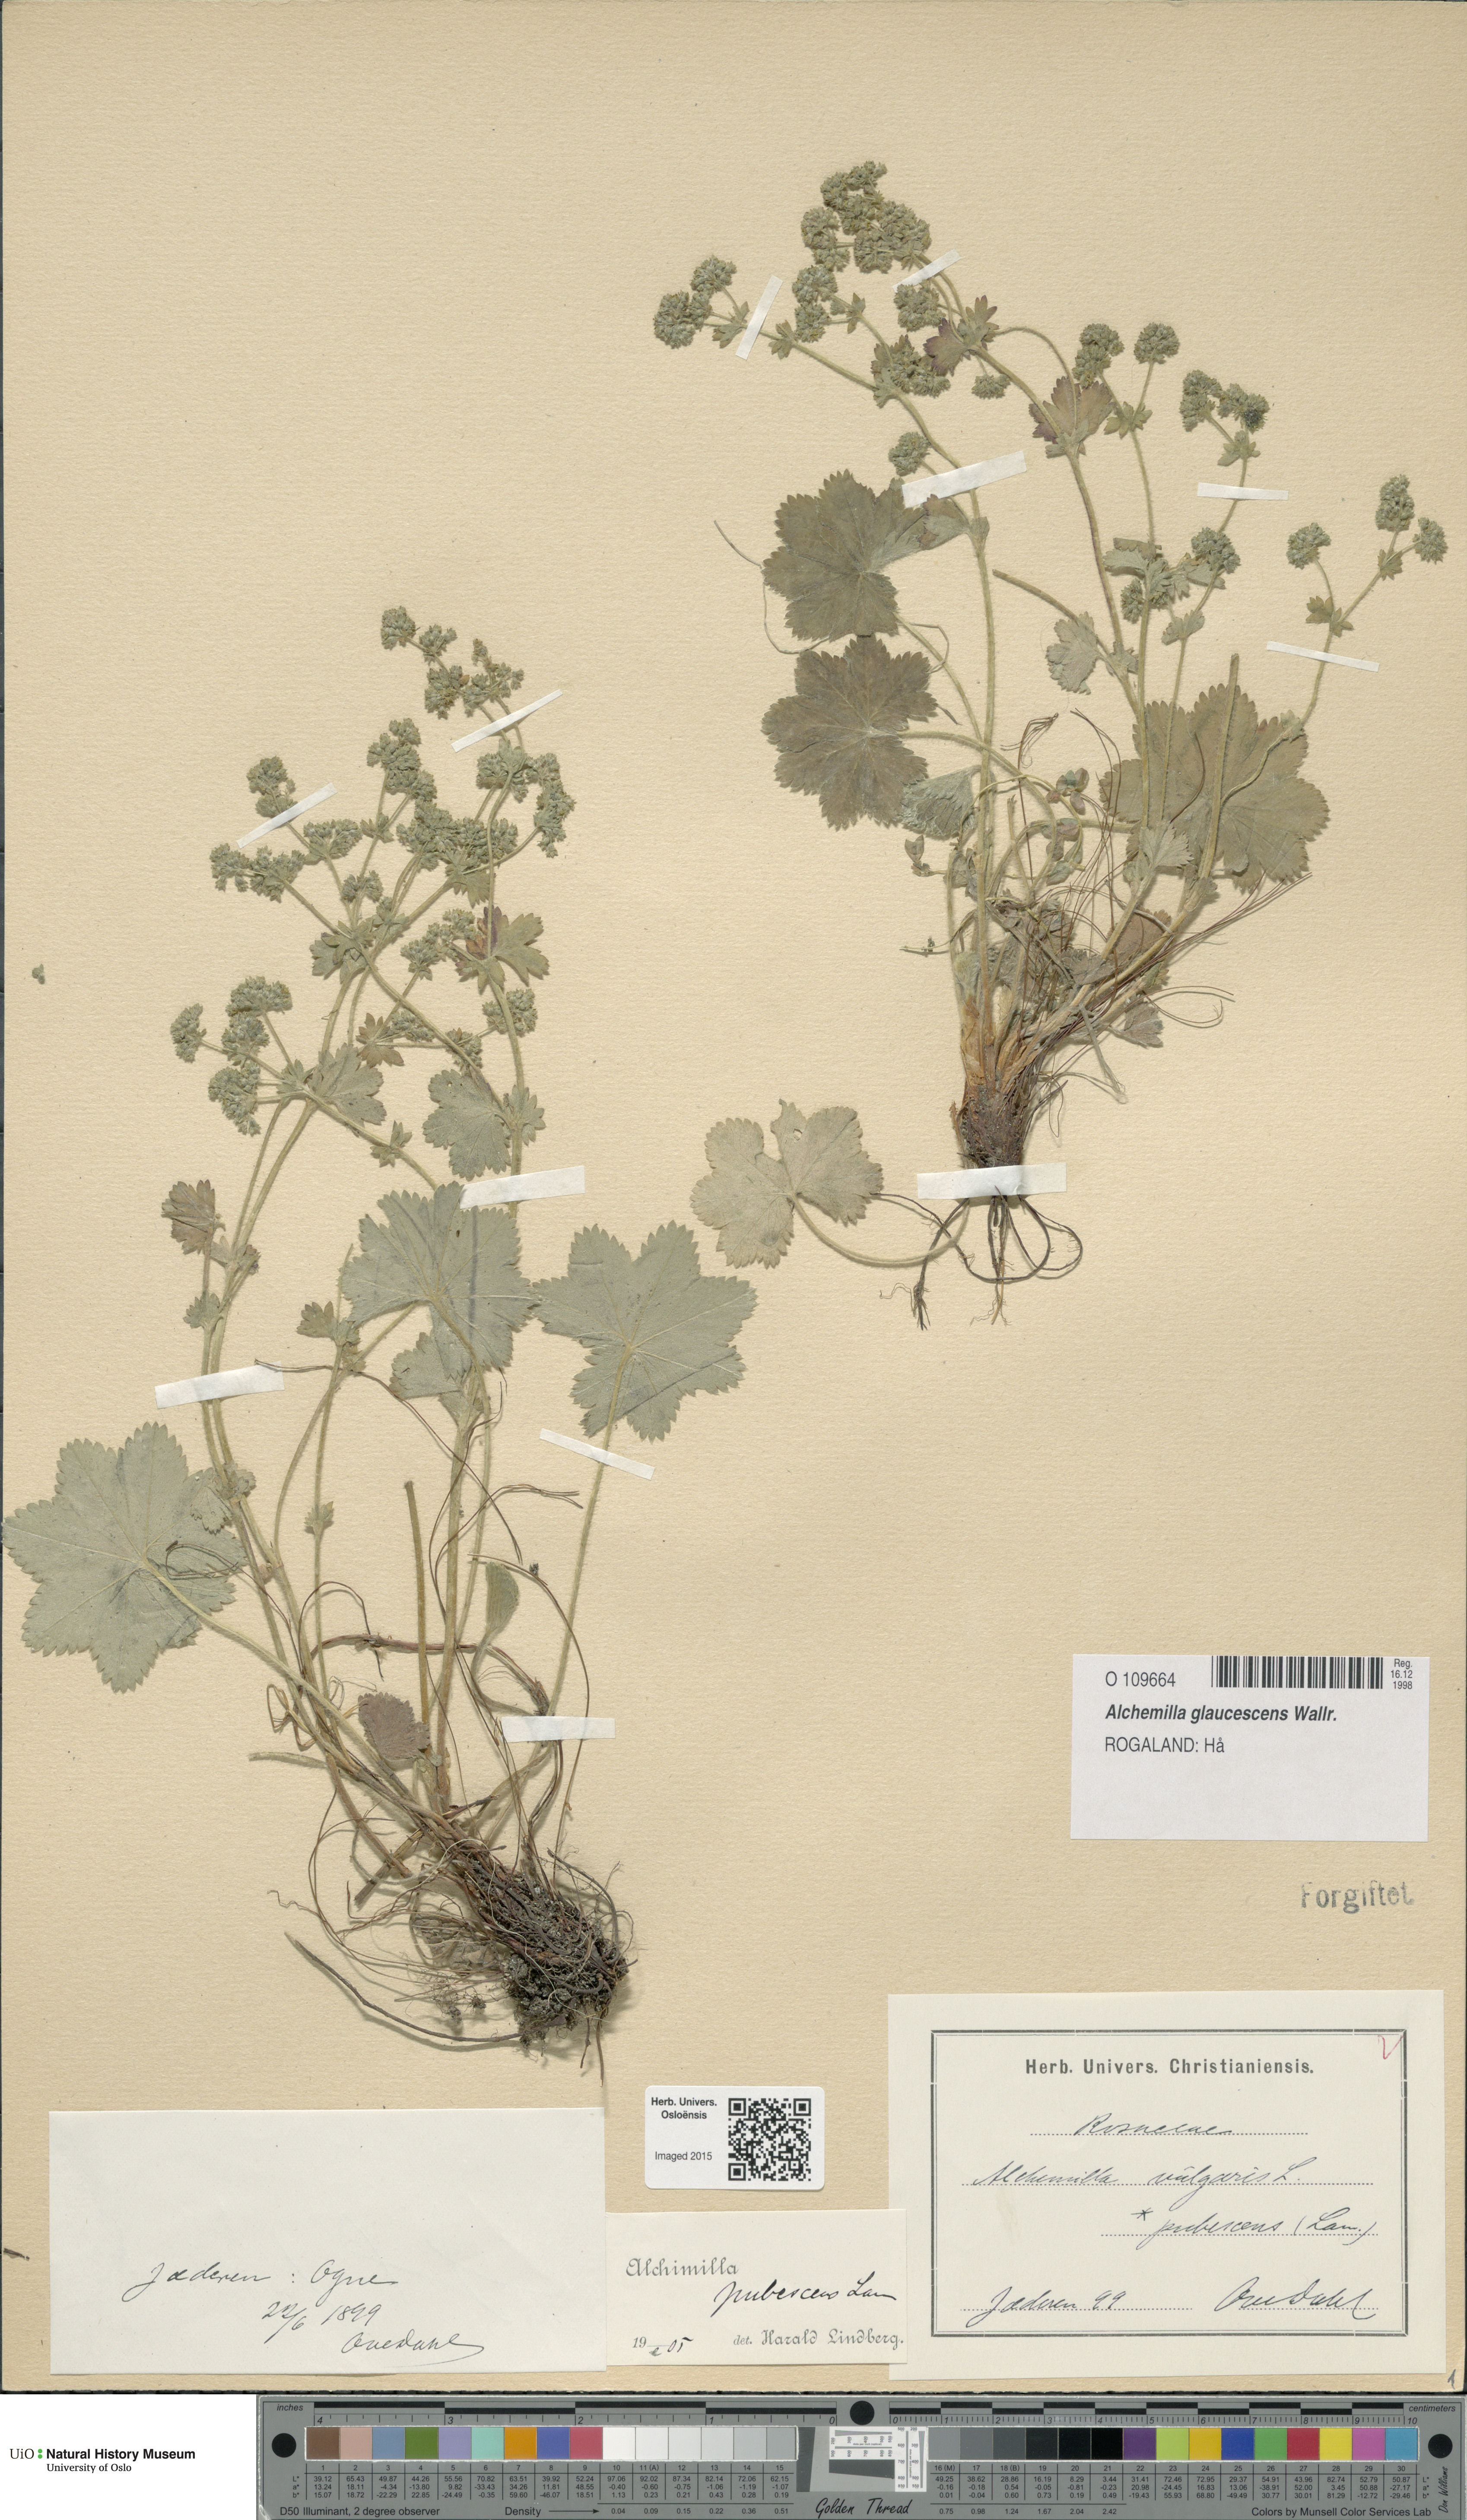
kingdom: Plantae
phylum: Tracheophyta
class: Magnoliopsida
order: Rosales
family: Rosaceae
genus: Alchemilla
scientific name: Alchemilla glaucescens
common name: Silky lady's mantle
